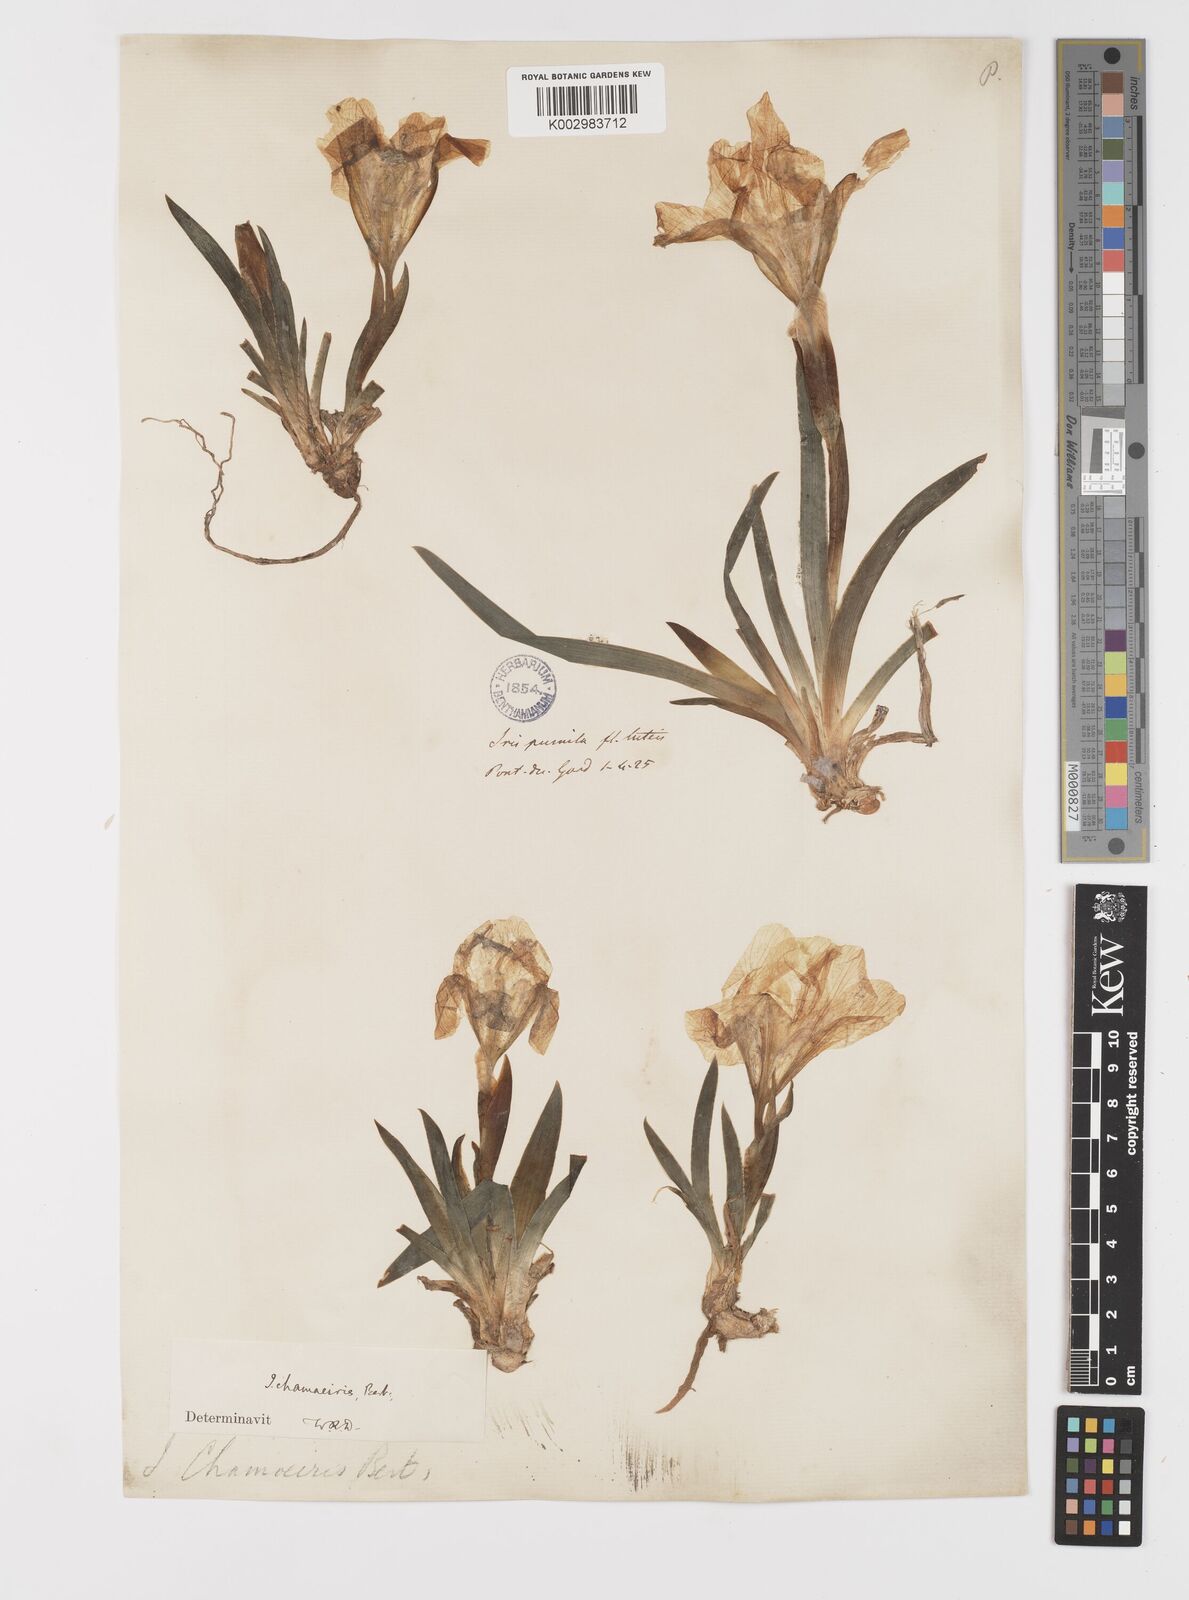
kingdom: Plantae
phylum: Tracheophyta
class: Liliopsida
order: Asparagales
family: Iridaceae
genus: Iris
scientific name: Iris lutescens
